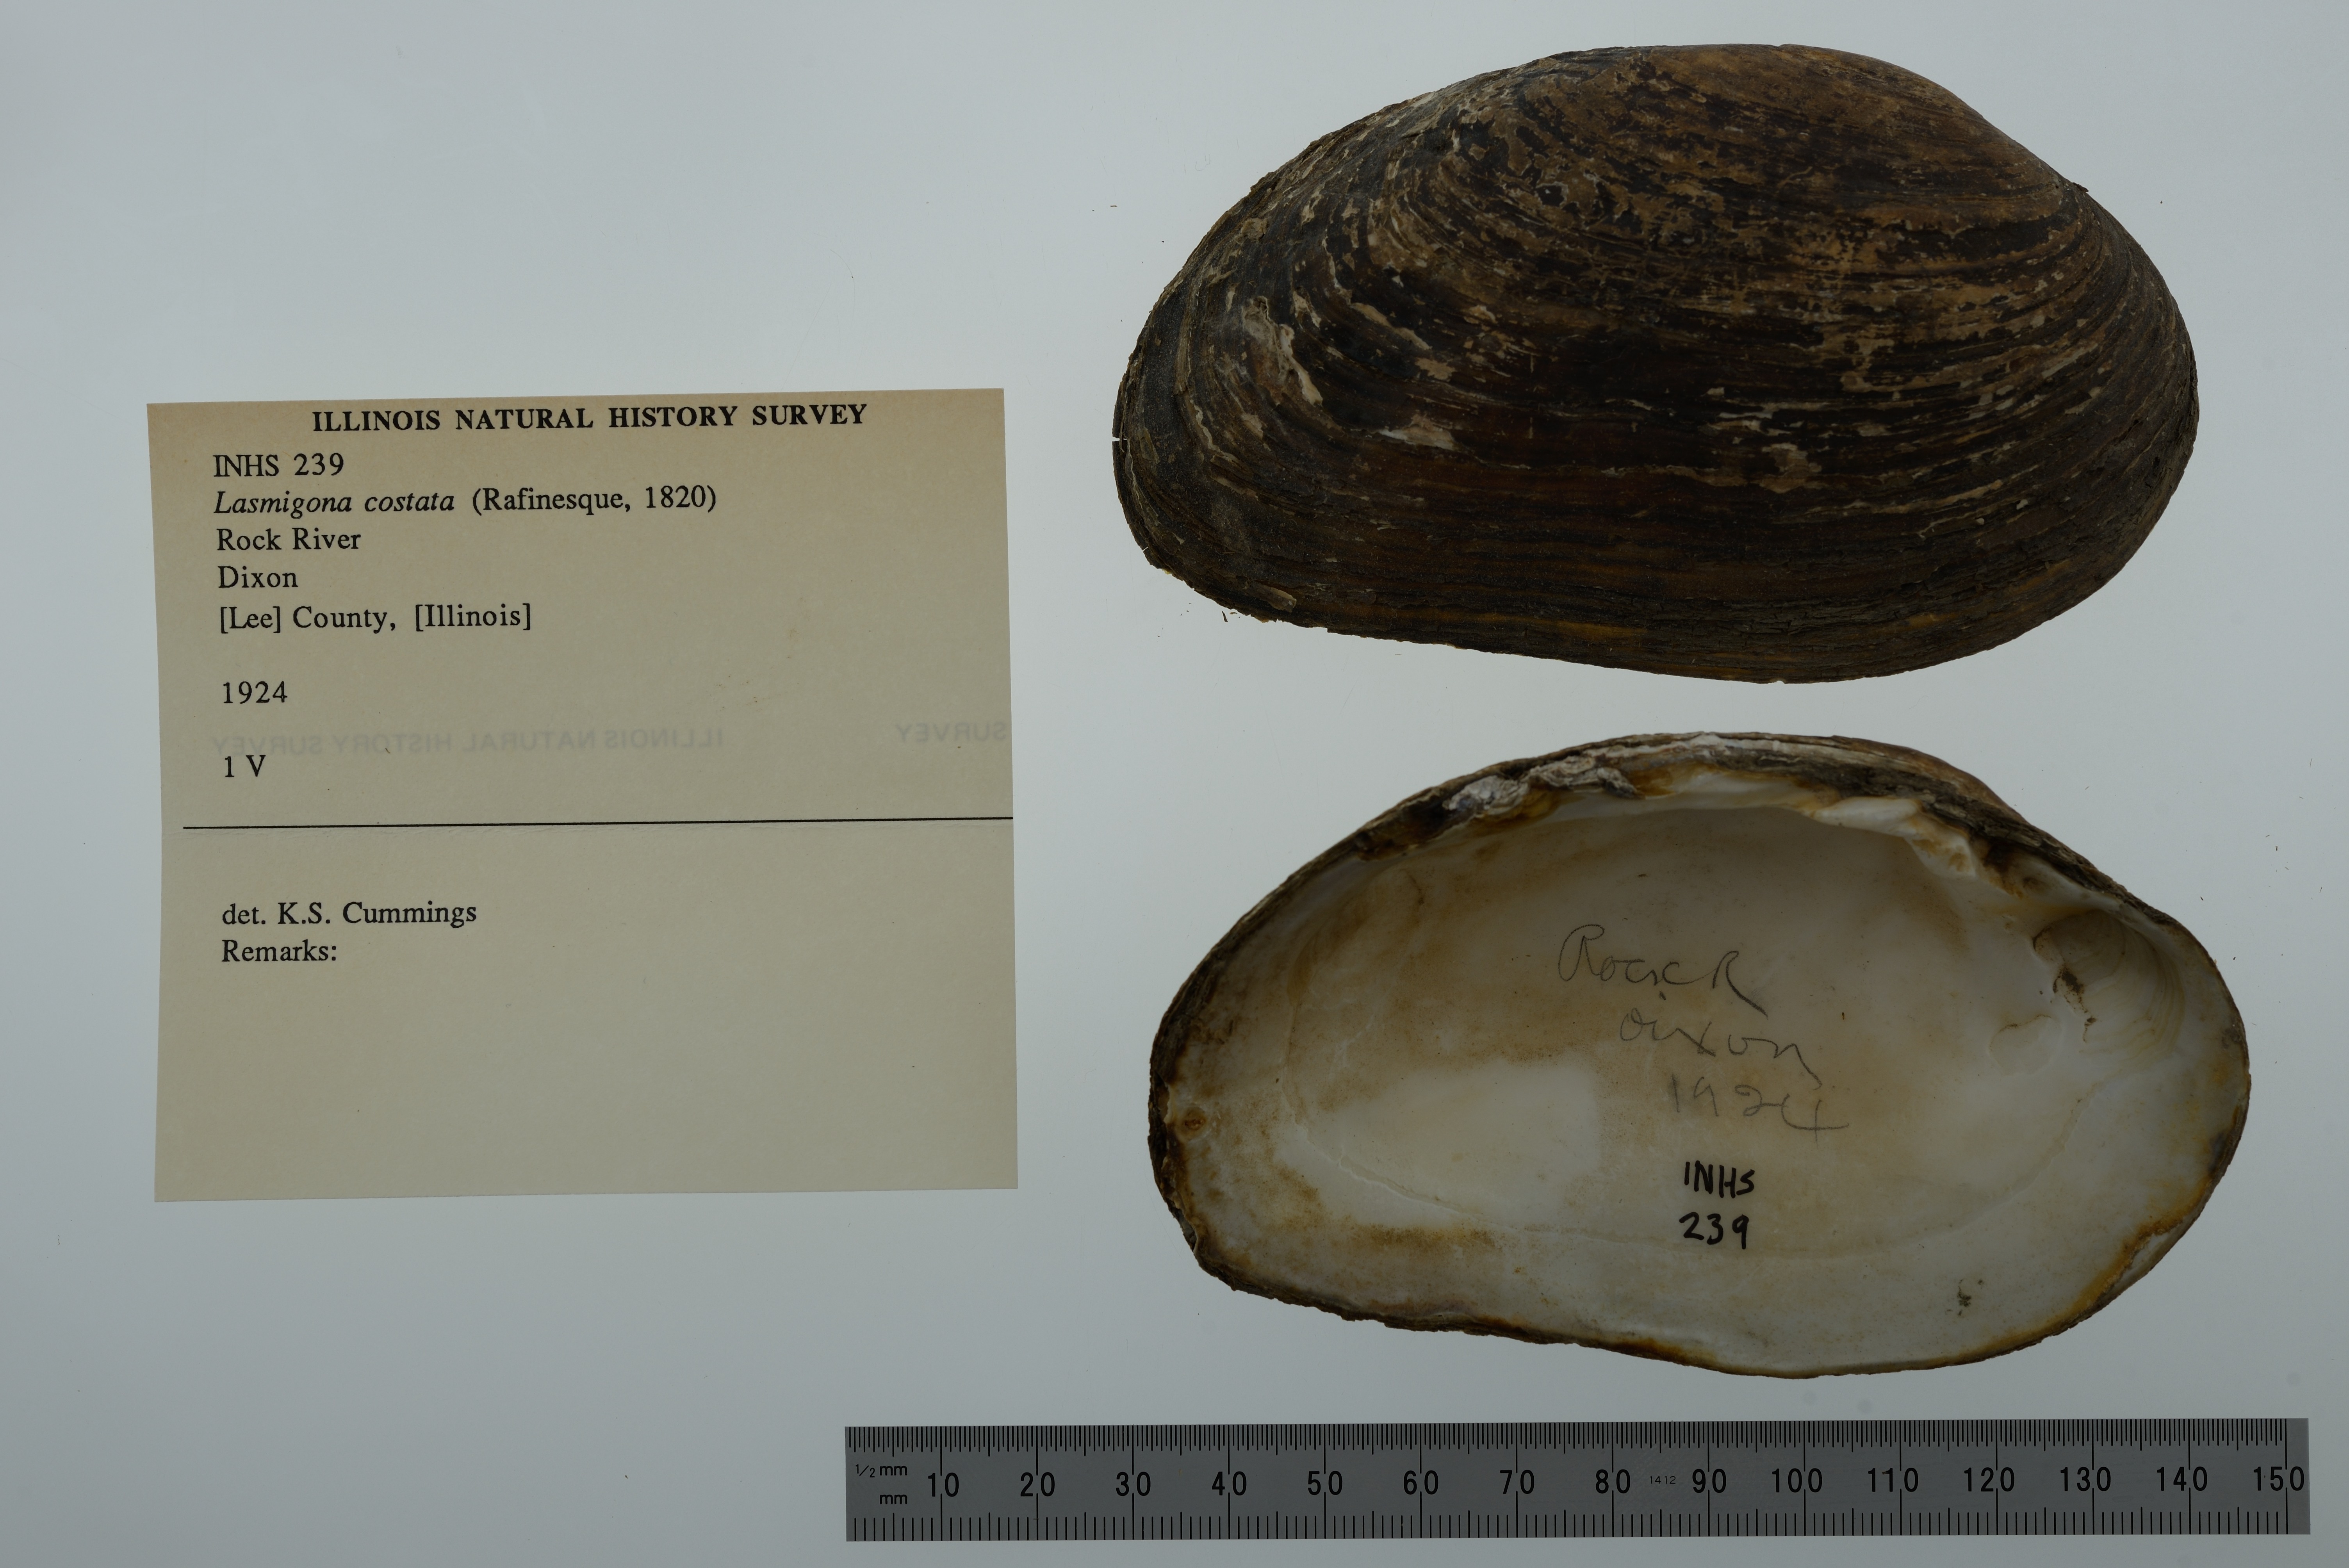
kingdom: Animalia
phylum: Mollusca
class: Bivalvia
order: Unionida
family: Unionidae
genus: Lasmigona
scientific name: Lasmigona costata
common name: Flutedshell
